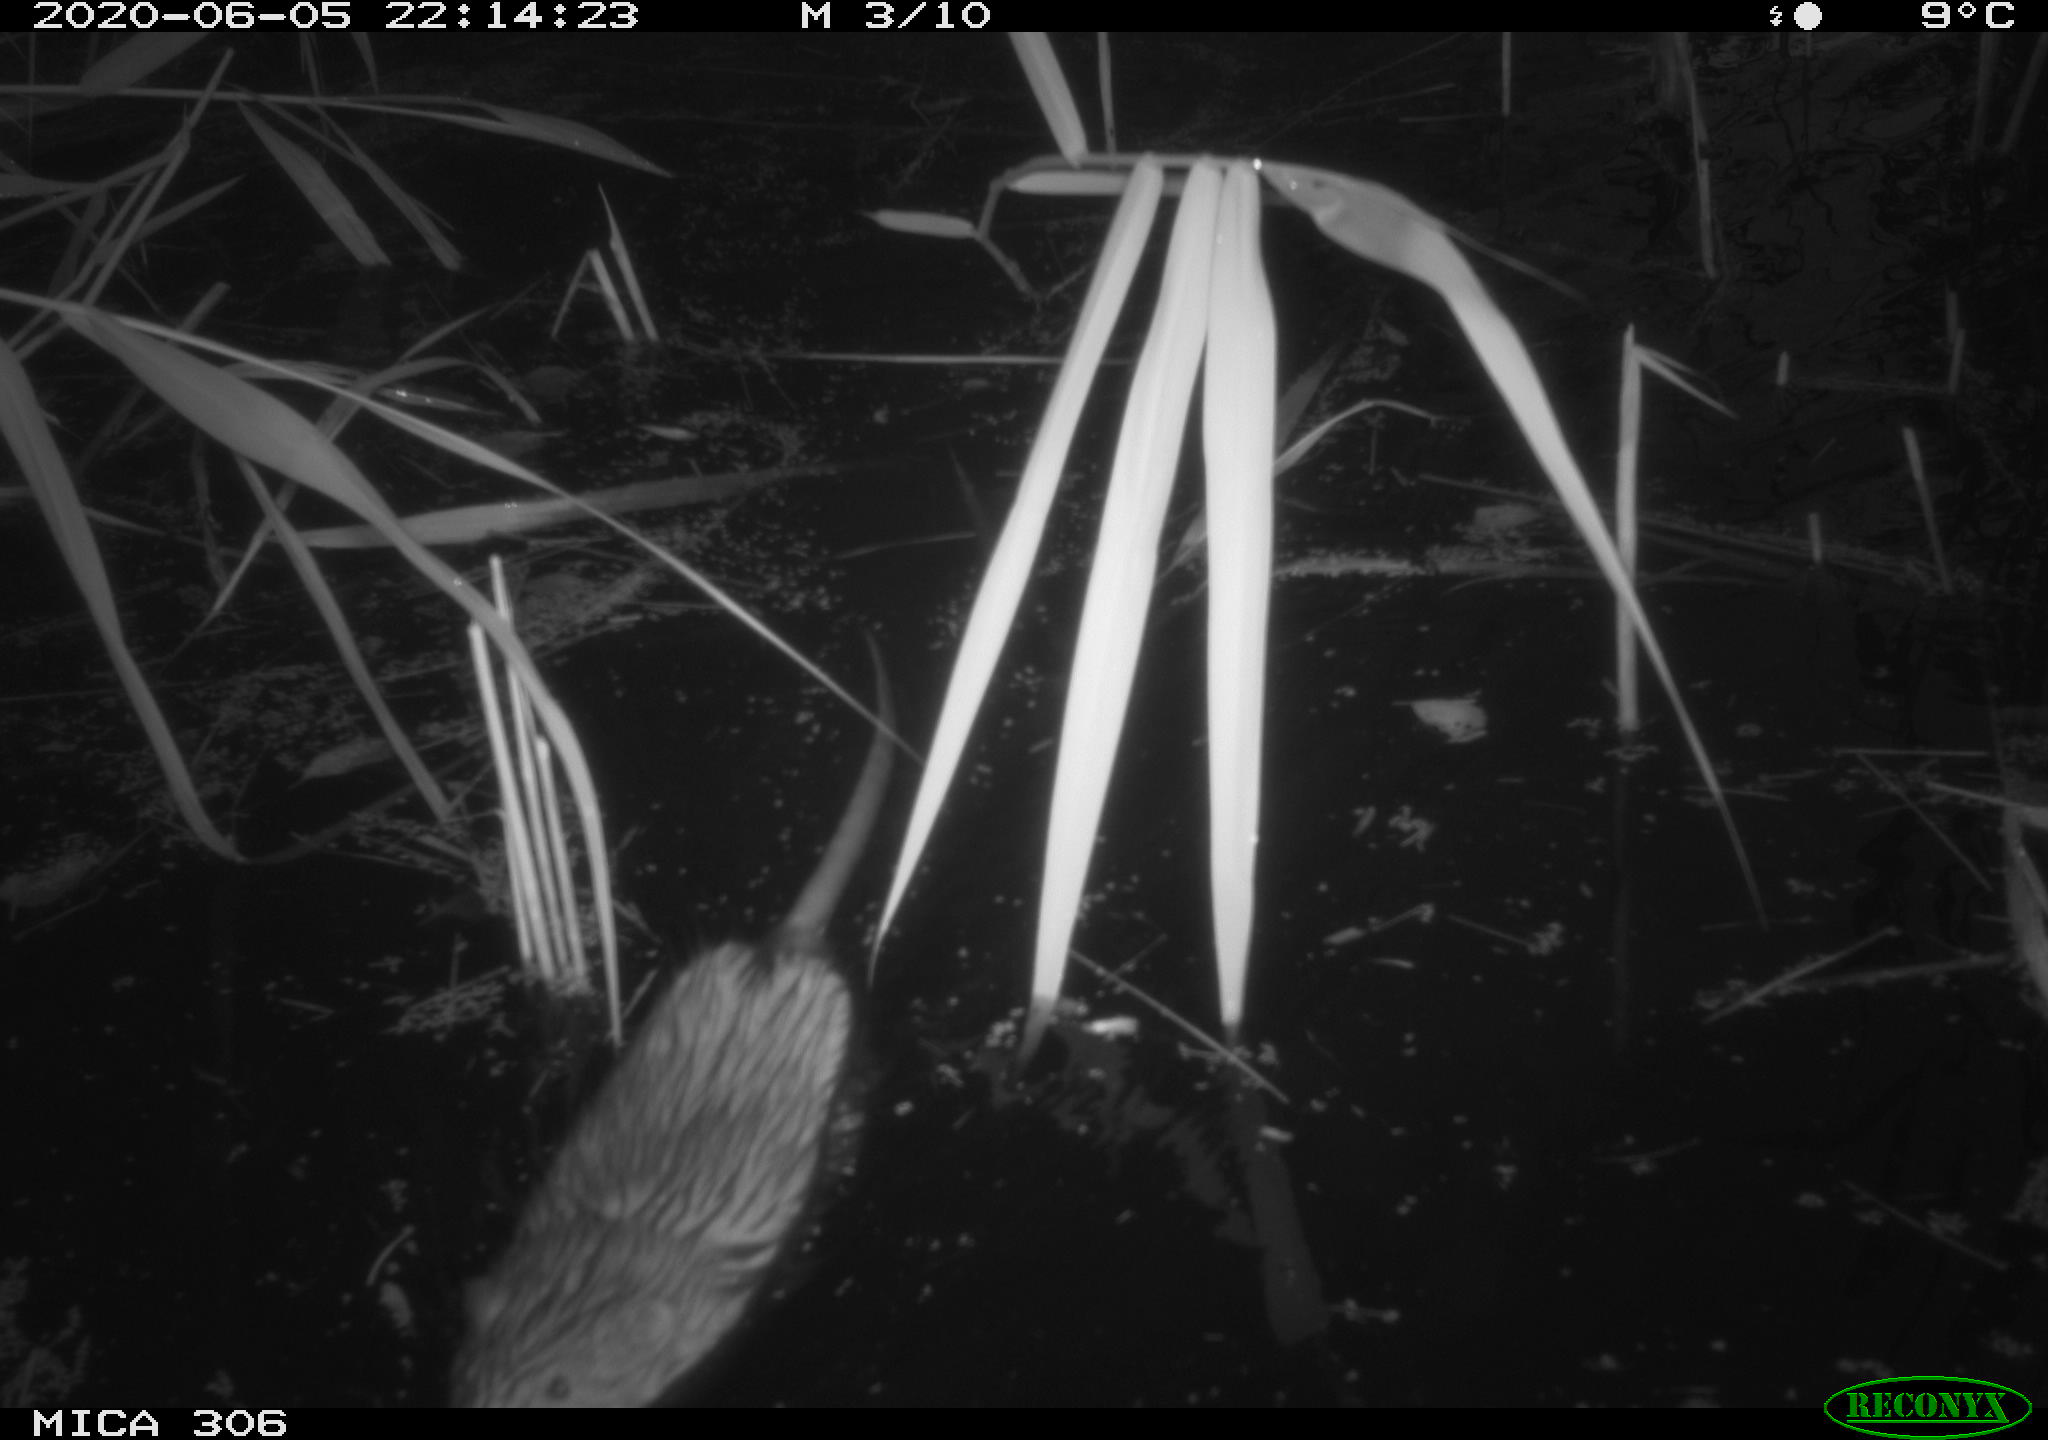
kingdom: Animalia
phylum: Chordata
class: Mammalia
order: Rodentia
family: Cricetidae
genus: Ondatra
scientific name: Ondatra zibethicus
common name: Muskrat
